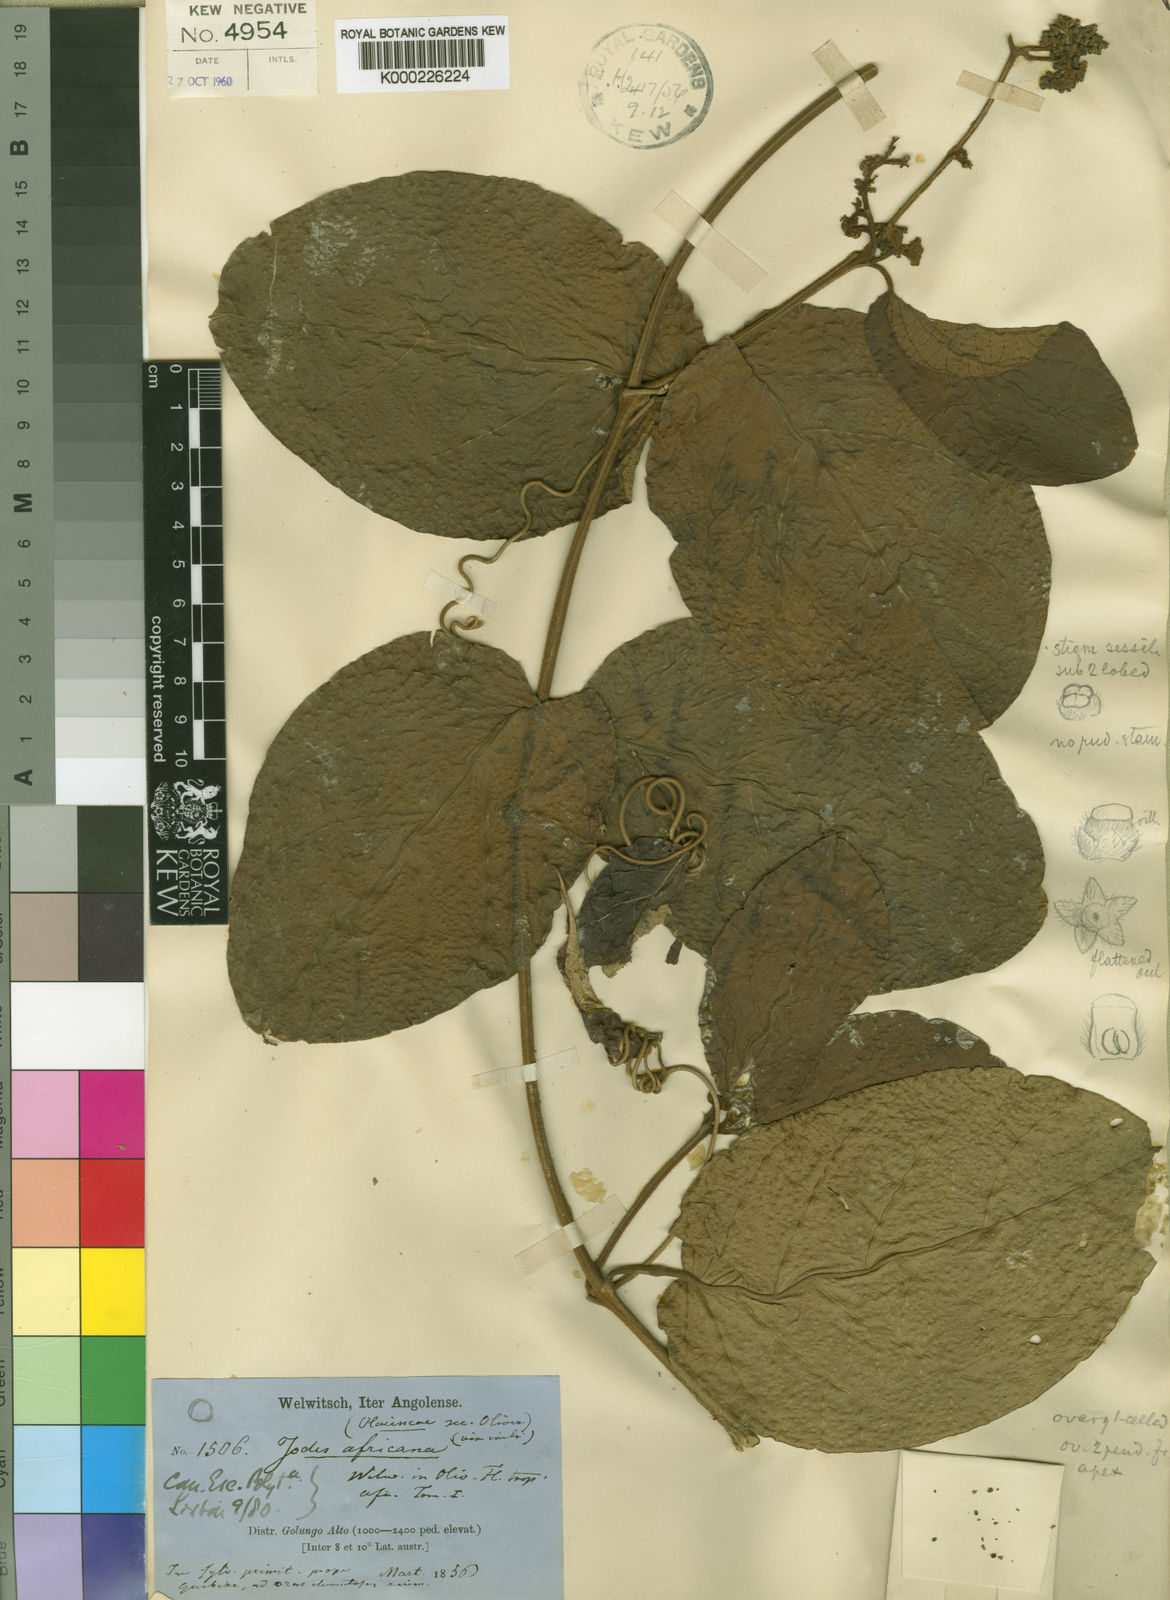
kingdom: Plantae
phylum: Tracheophyta
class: Magnoliopsida
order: Icacinales
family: Icacinaceae
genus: Iodes
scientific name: Iodes africana
